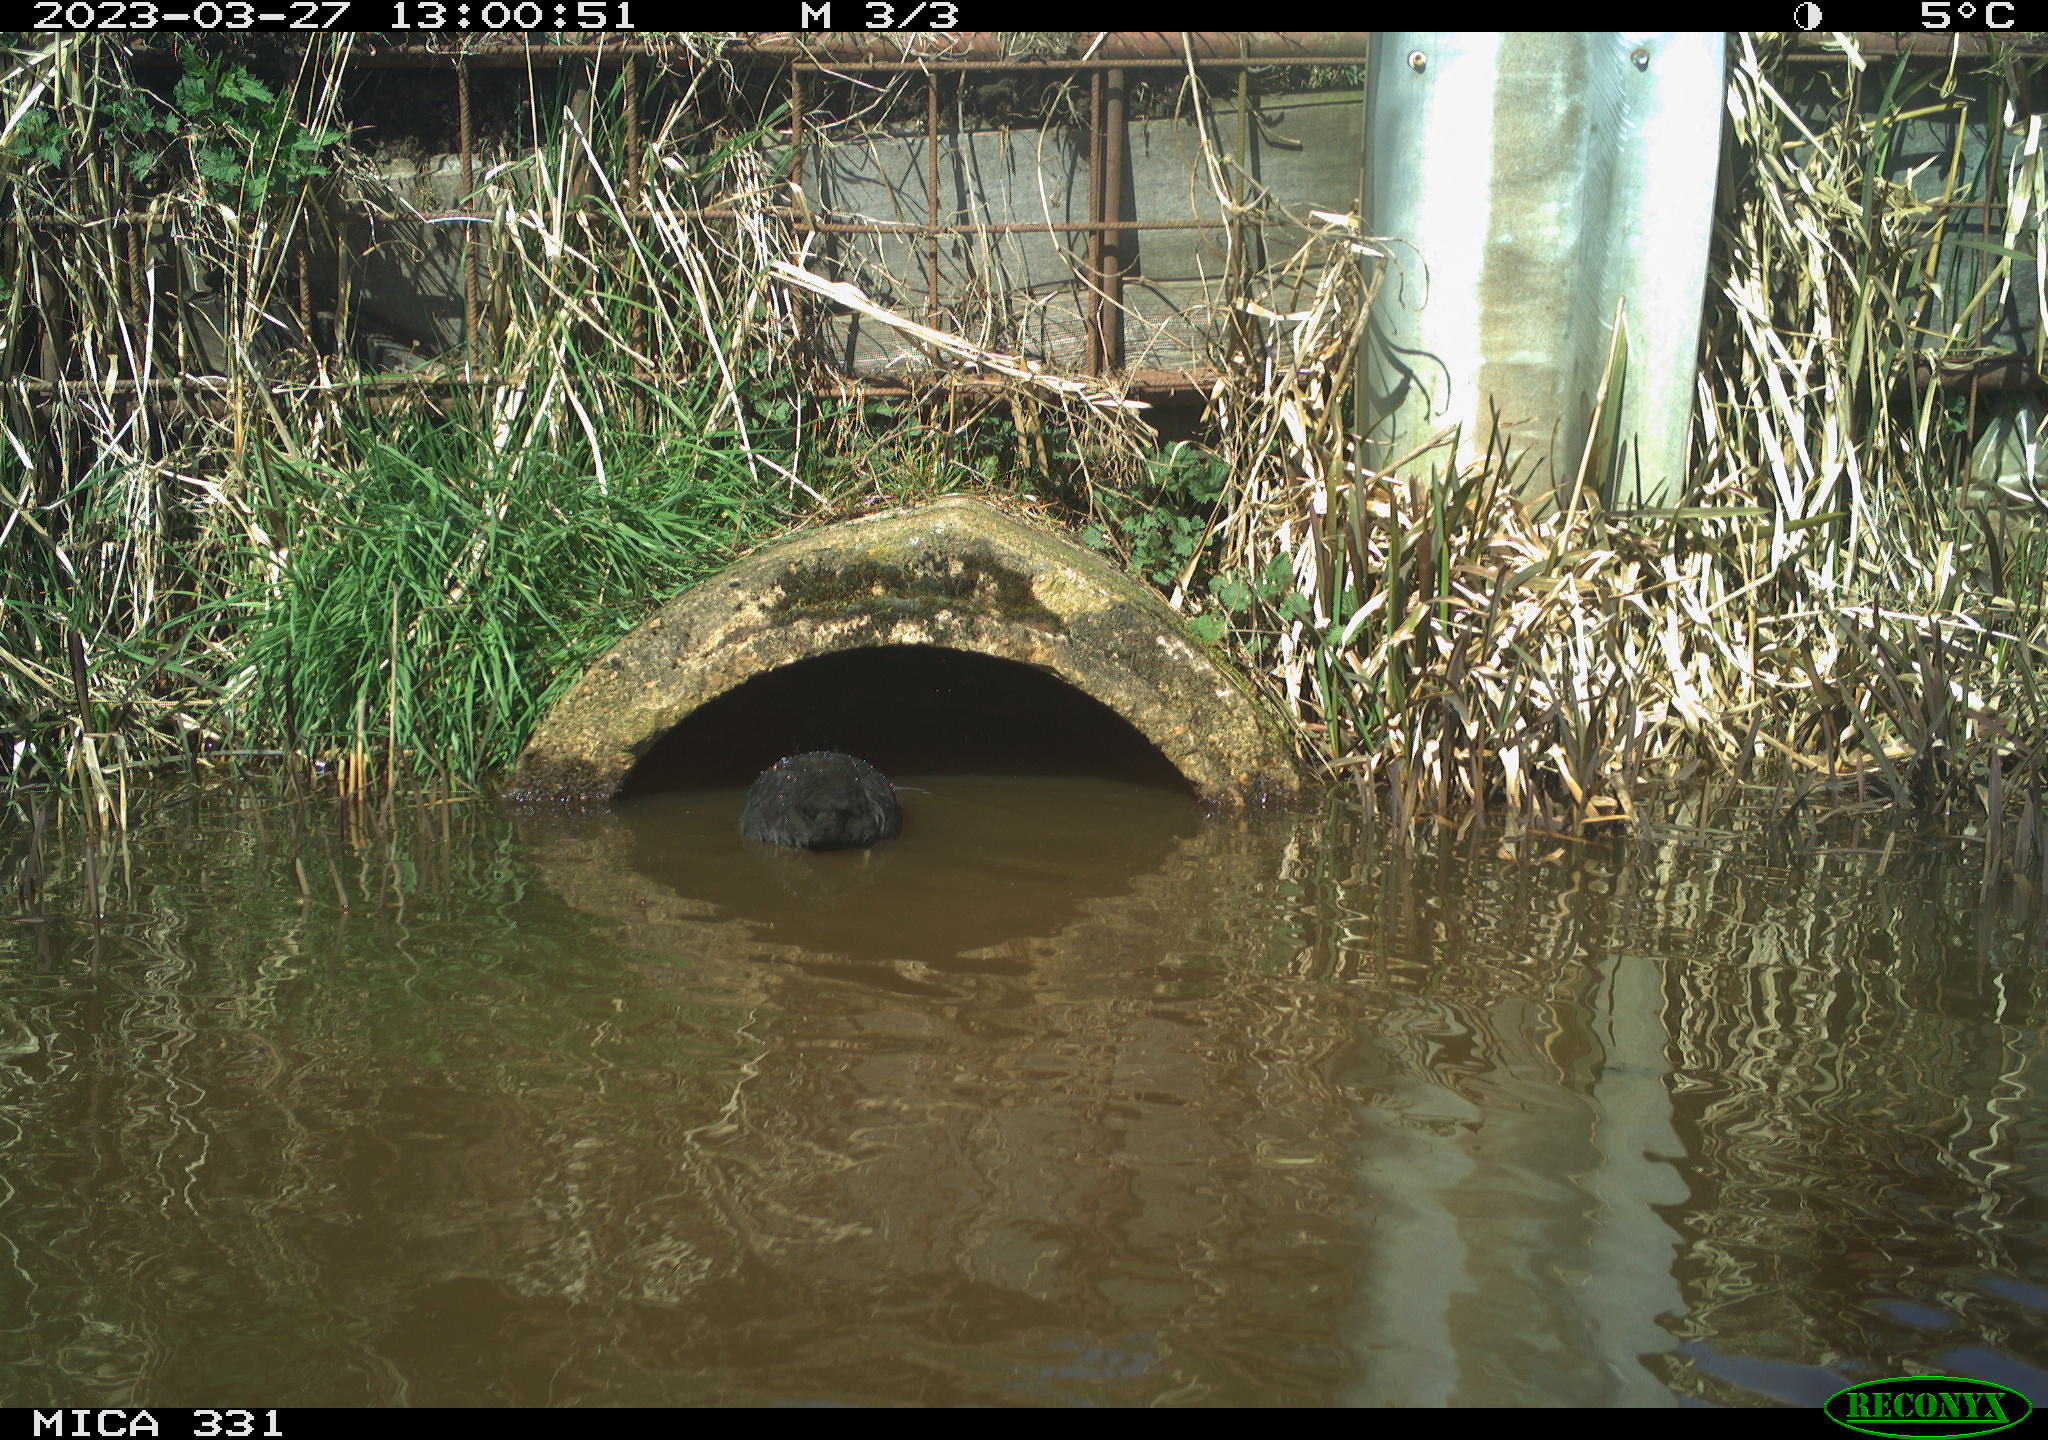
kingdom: Animalia
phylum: Chordata
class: Aves
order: Gruiformes
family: Rallidae
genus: Fulica
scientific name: Fulica atra
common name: Eurasian coot
